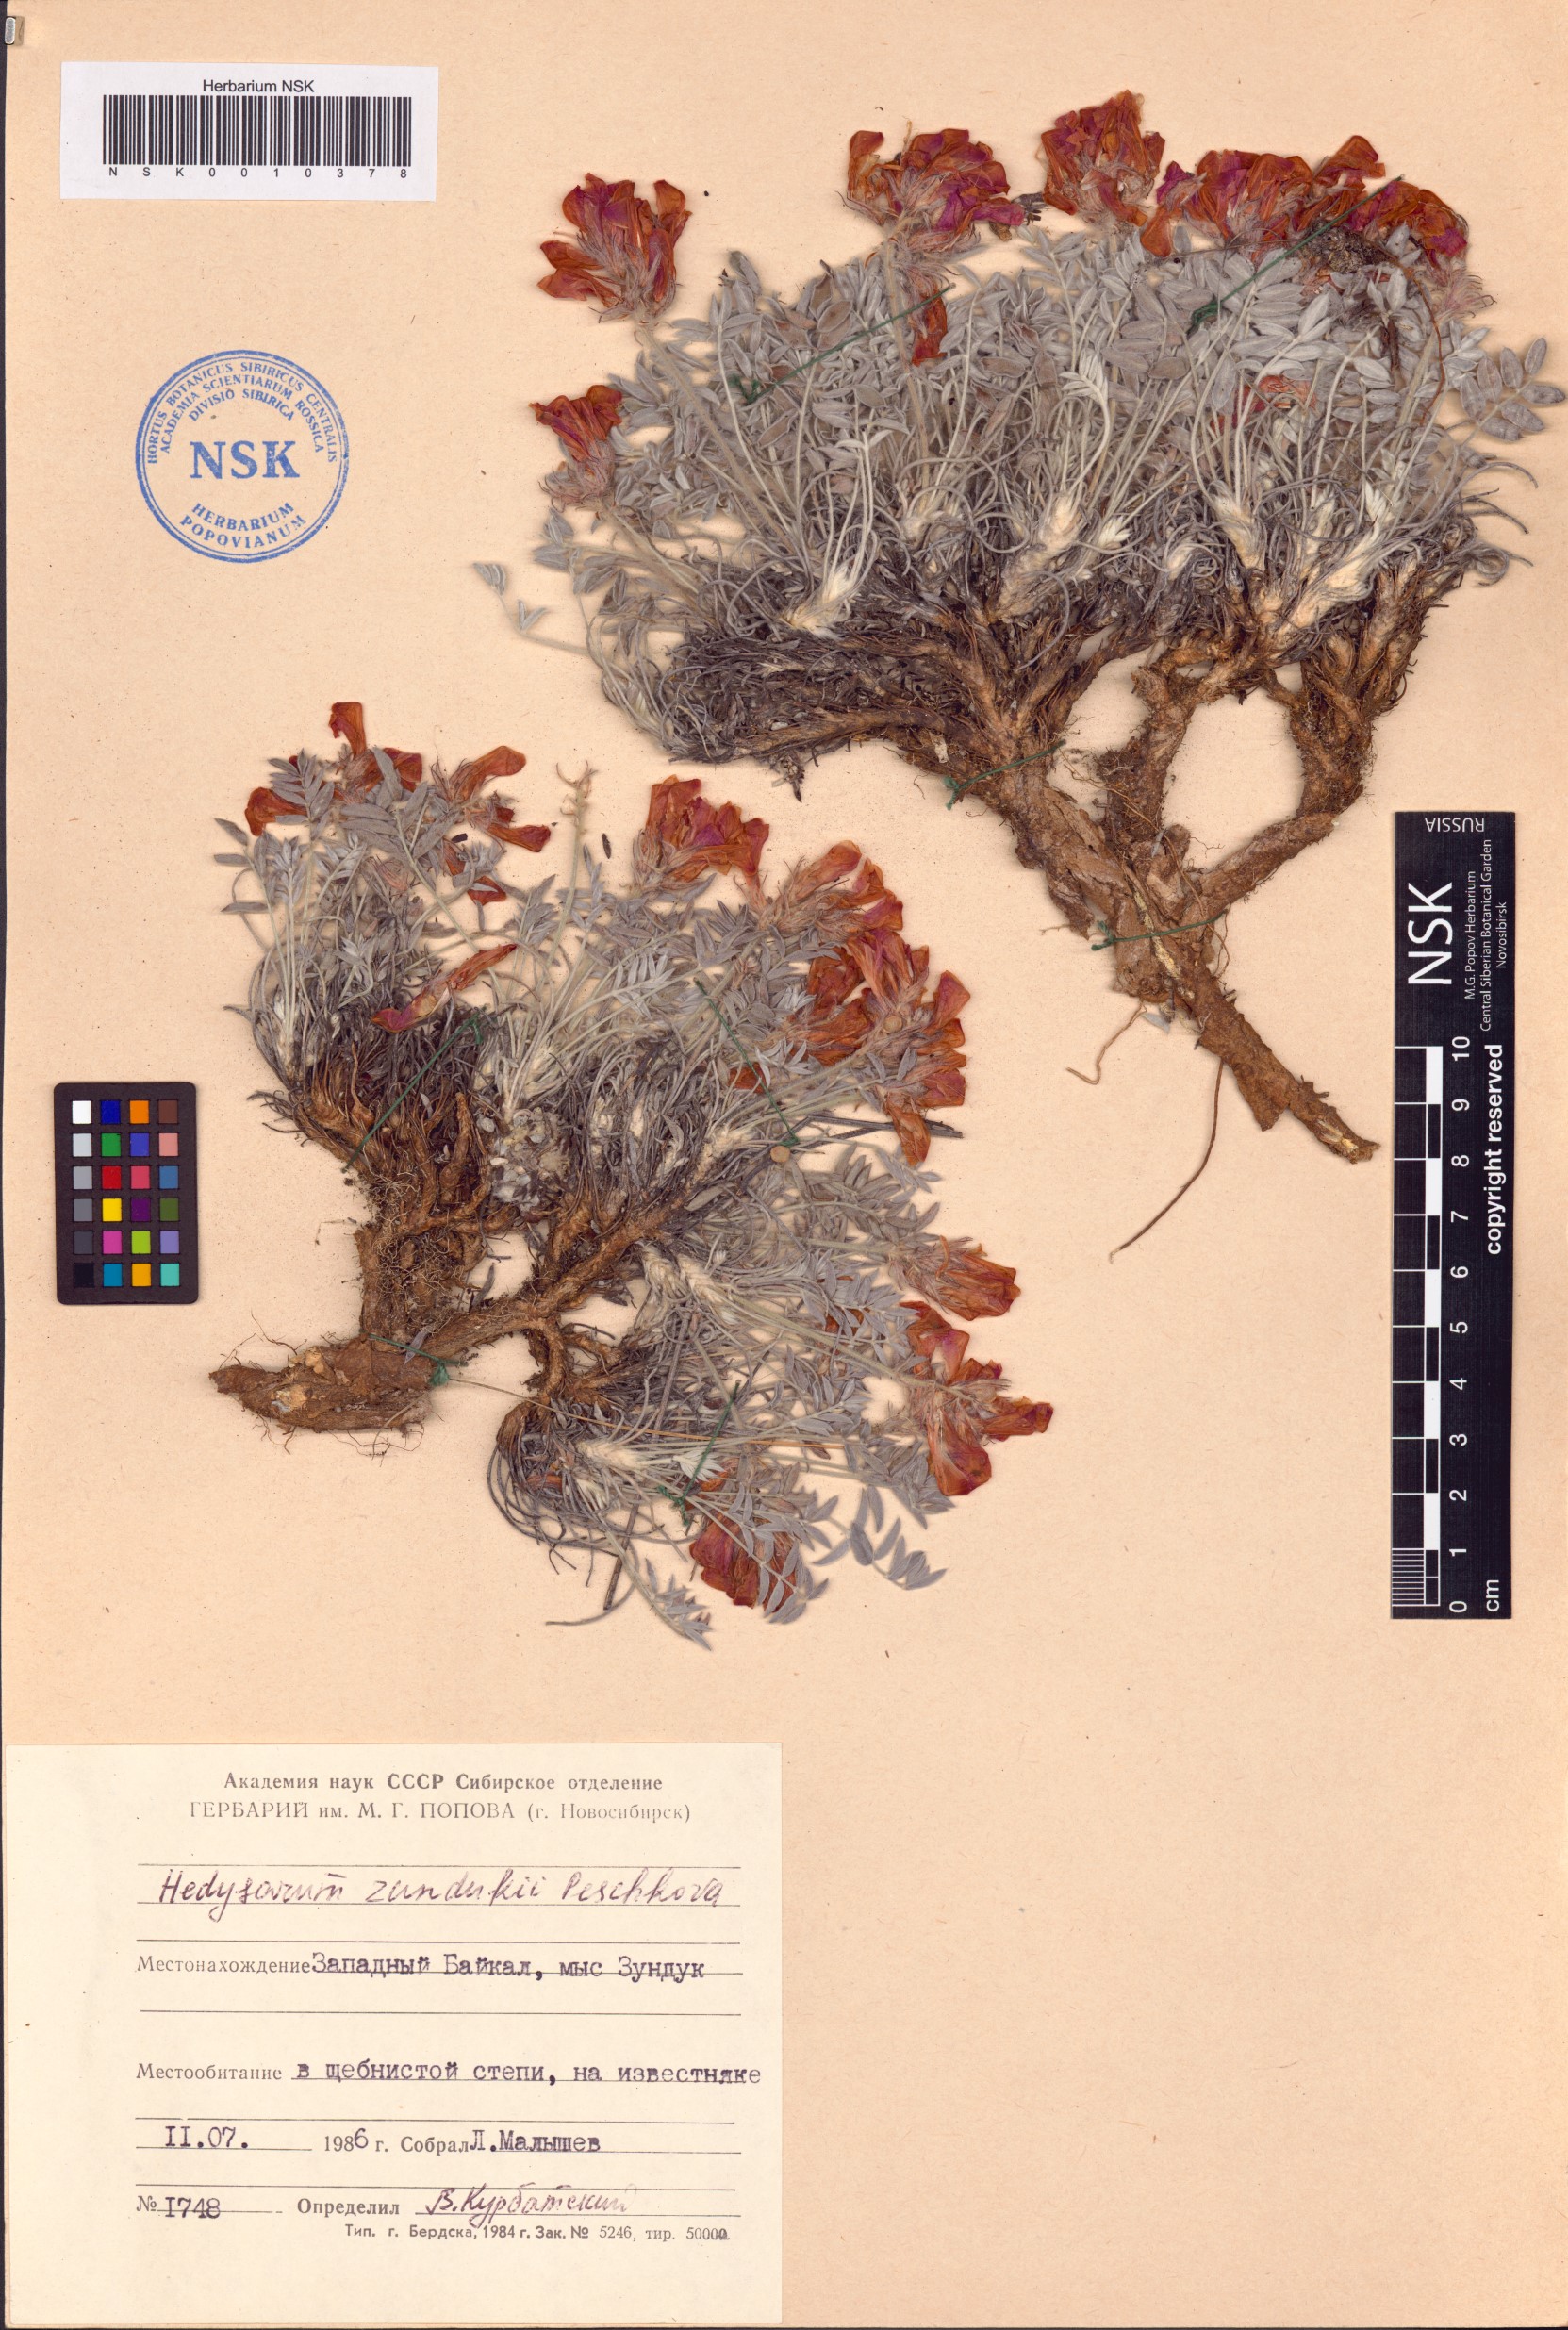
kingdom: Plantae
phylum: Tracheophyta
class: Magnoliopsida
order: Fabales
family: Fabaceae
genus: Hedysarum
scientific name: Hedysarum zundukii
